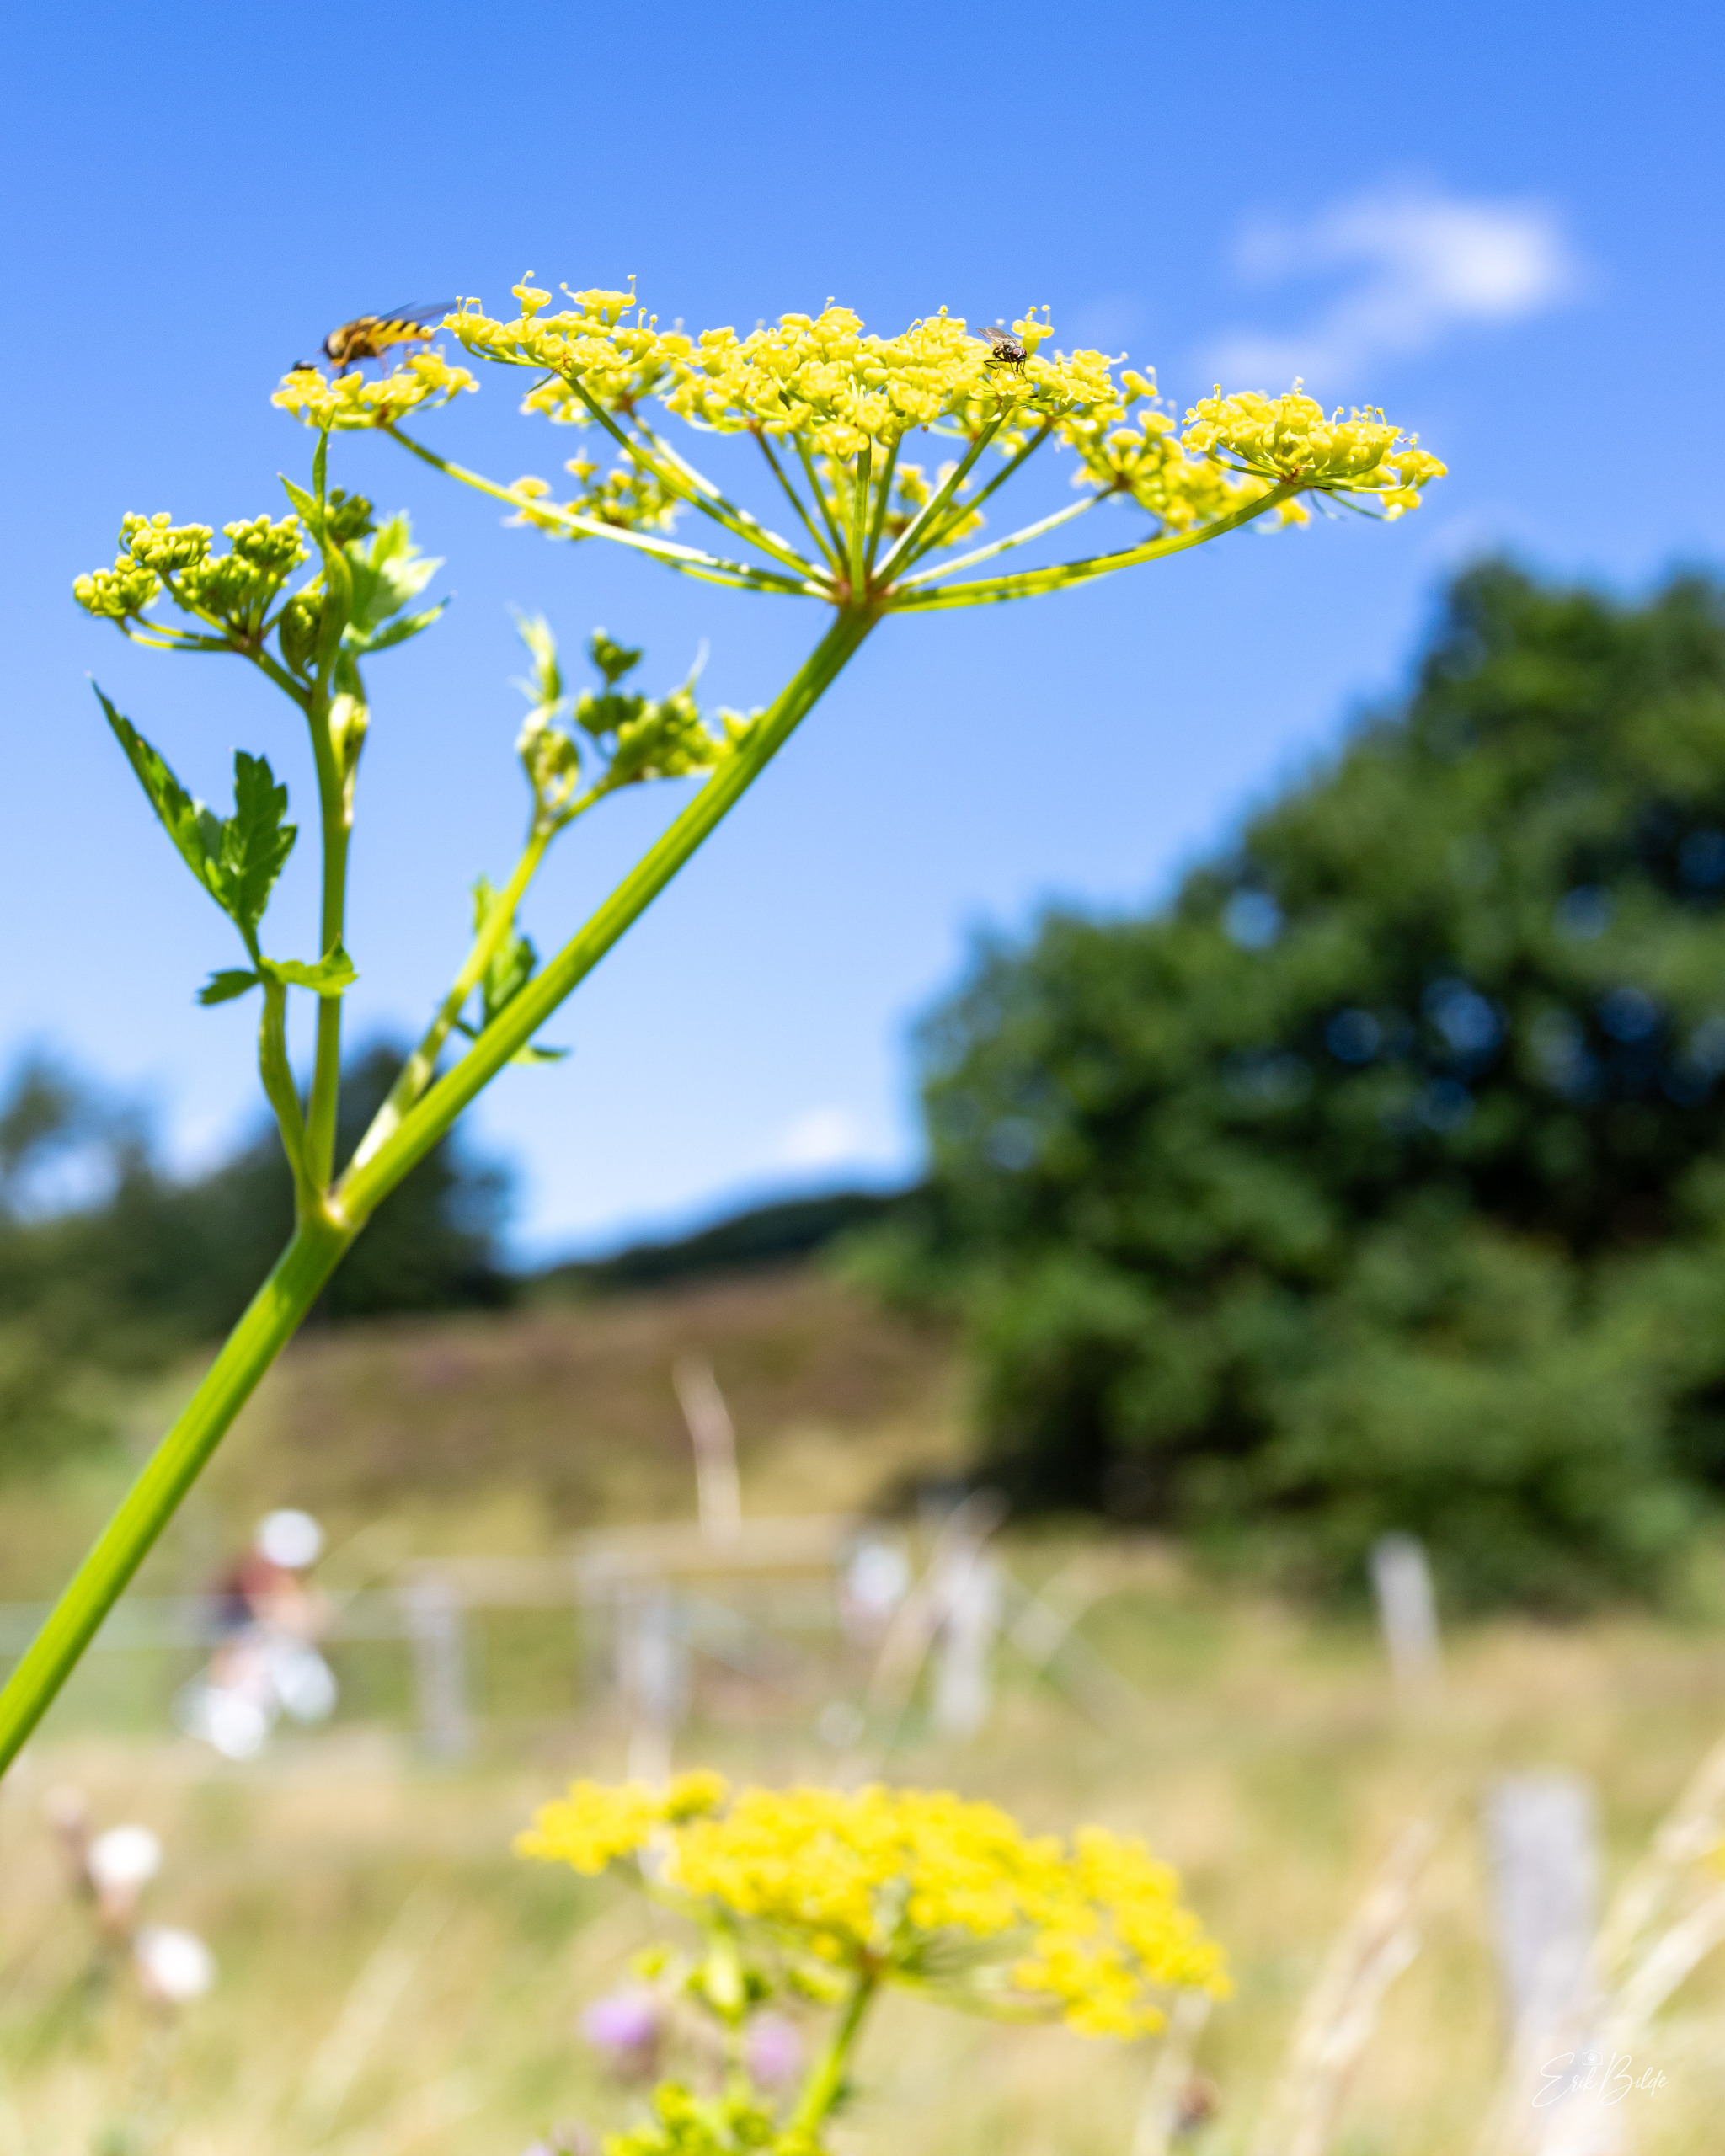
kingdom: Plantae
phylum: Tracheophyta
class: Magnoliopsida
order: Apiales
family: Apiaceae
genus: Pastinaca
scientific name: Pastinaca sativa
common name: Pastinak
